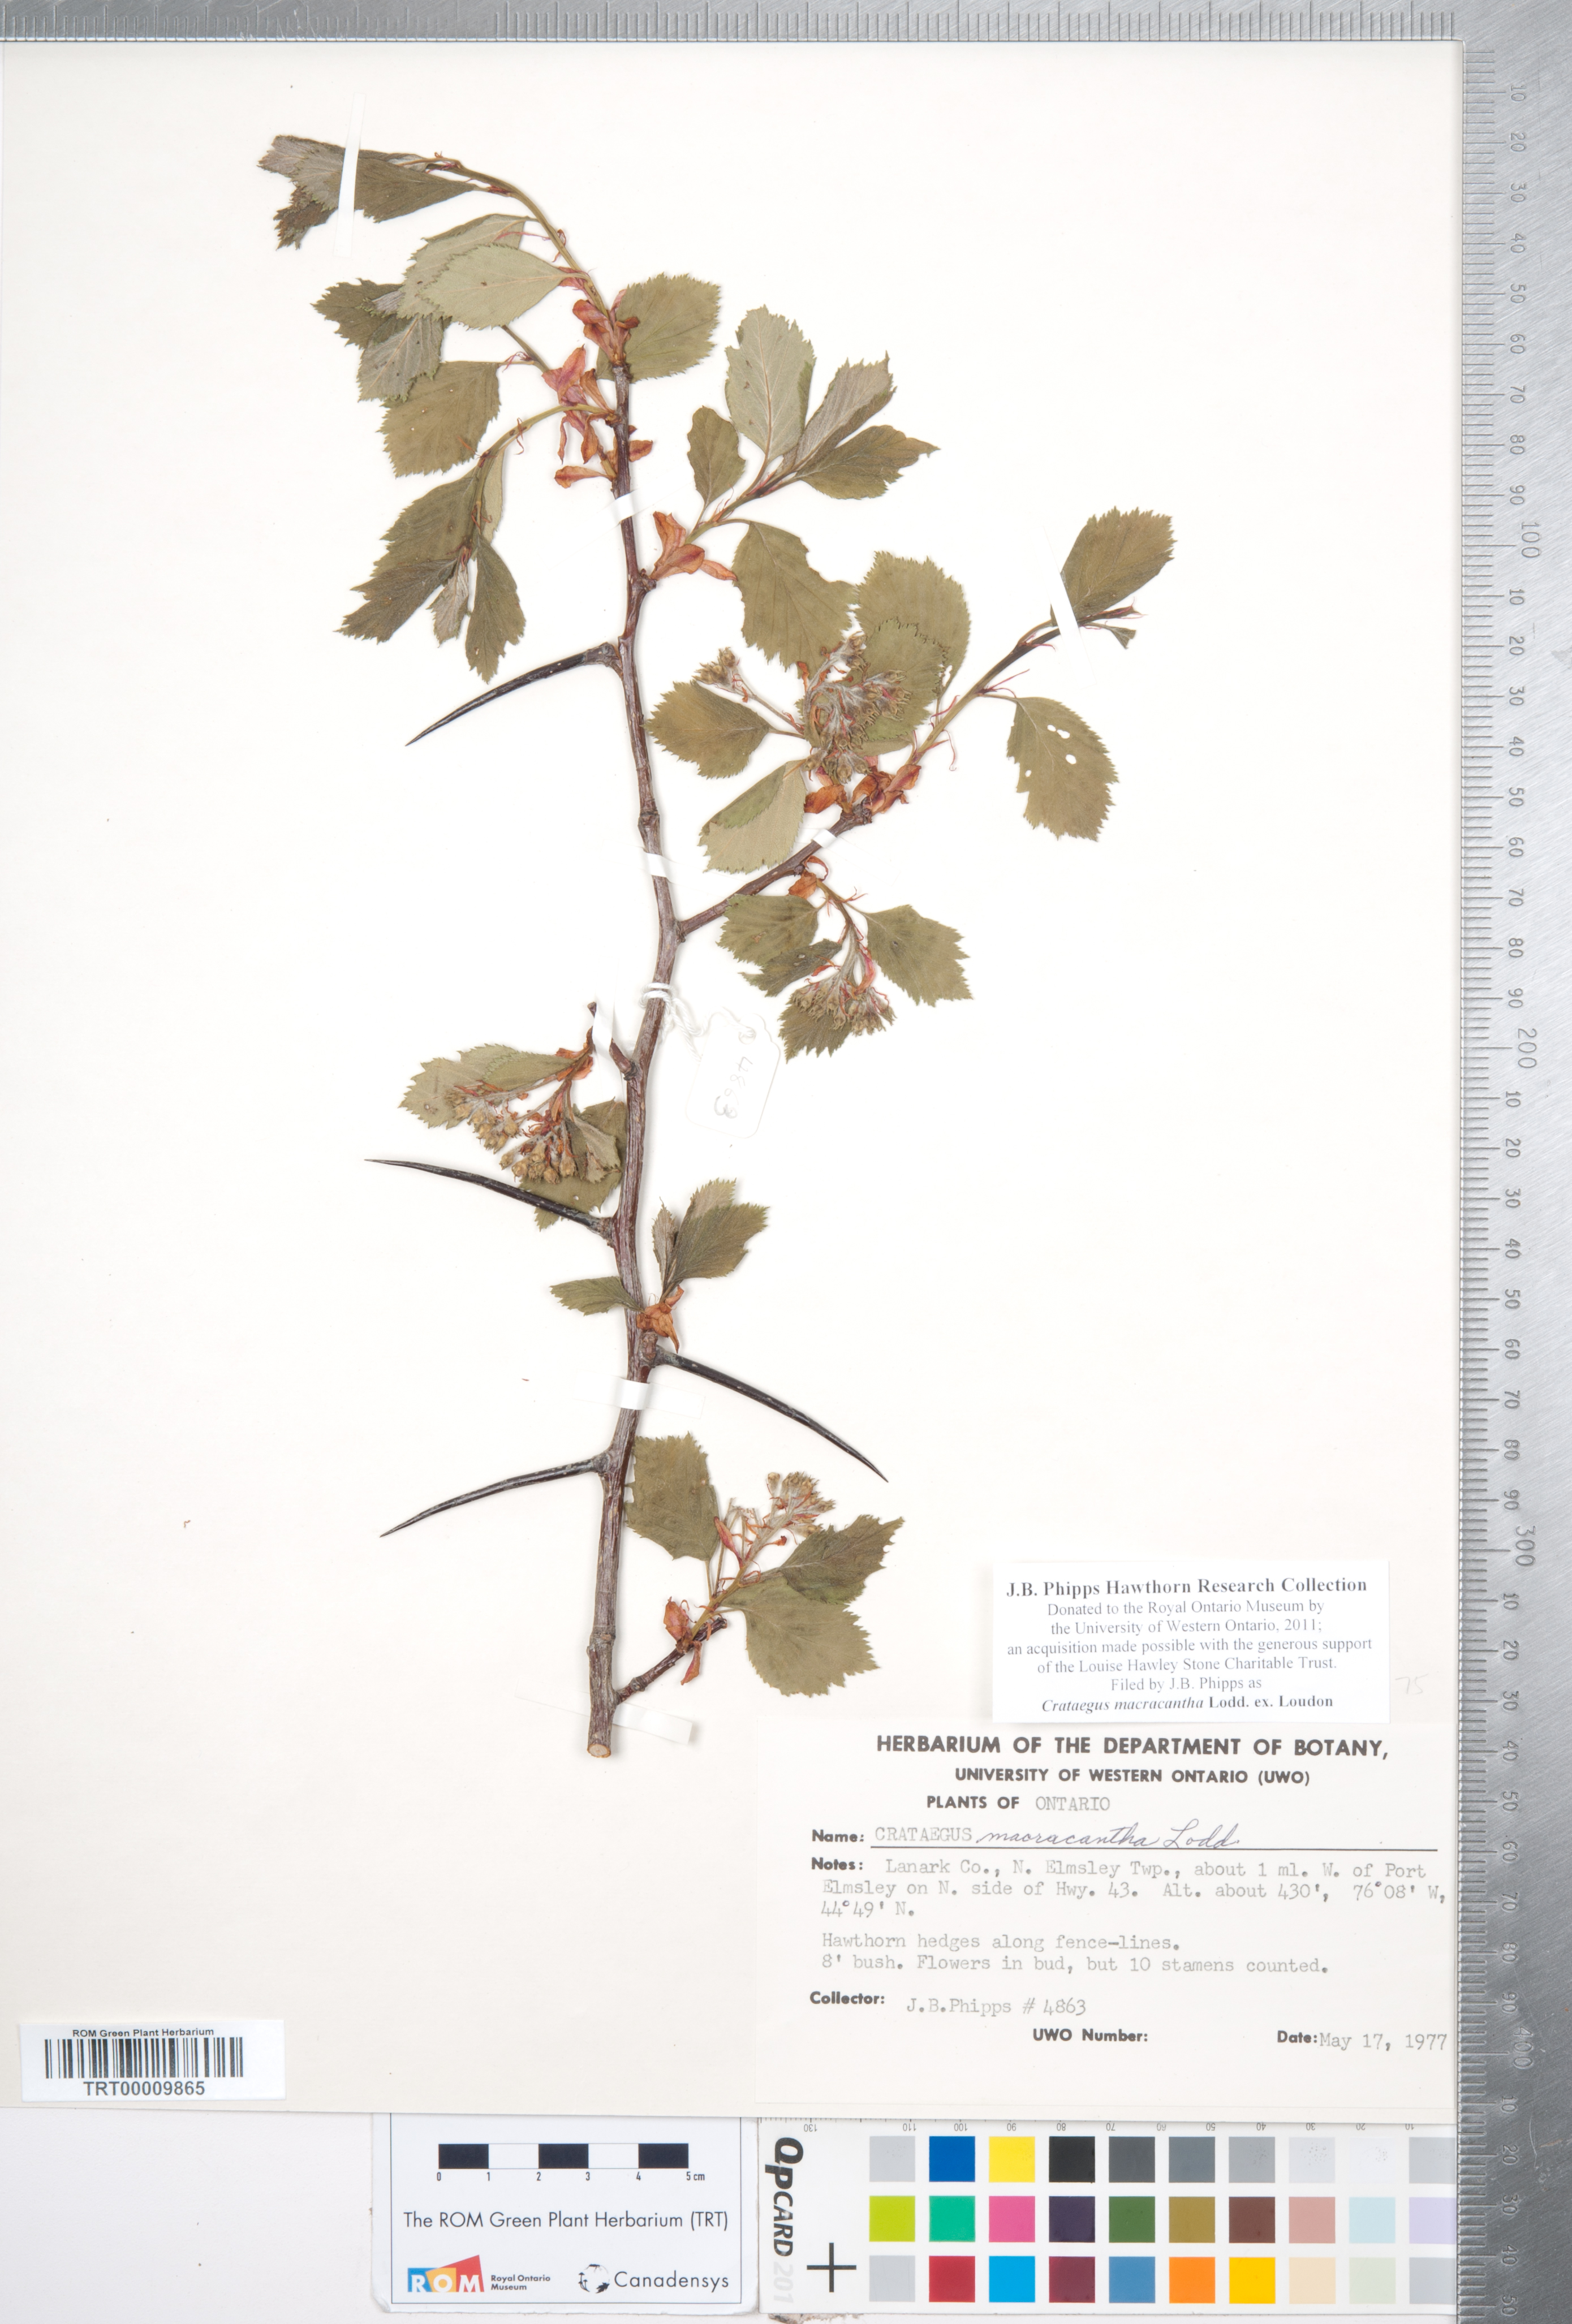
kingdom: Plantae
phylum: Tracheophyta
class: Magnoliopsida
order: Rosales
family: Rosaceae
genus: Crataegus
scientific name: Crataegus macracantha
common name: Large-thorn hawthorn
